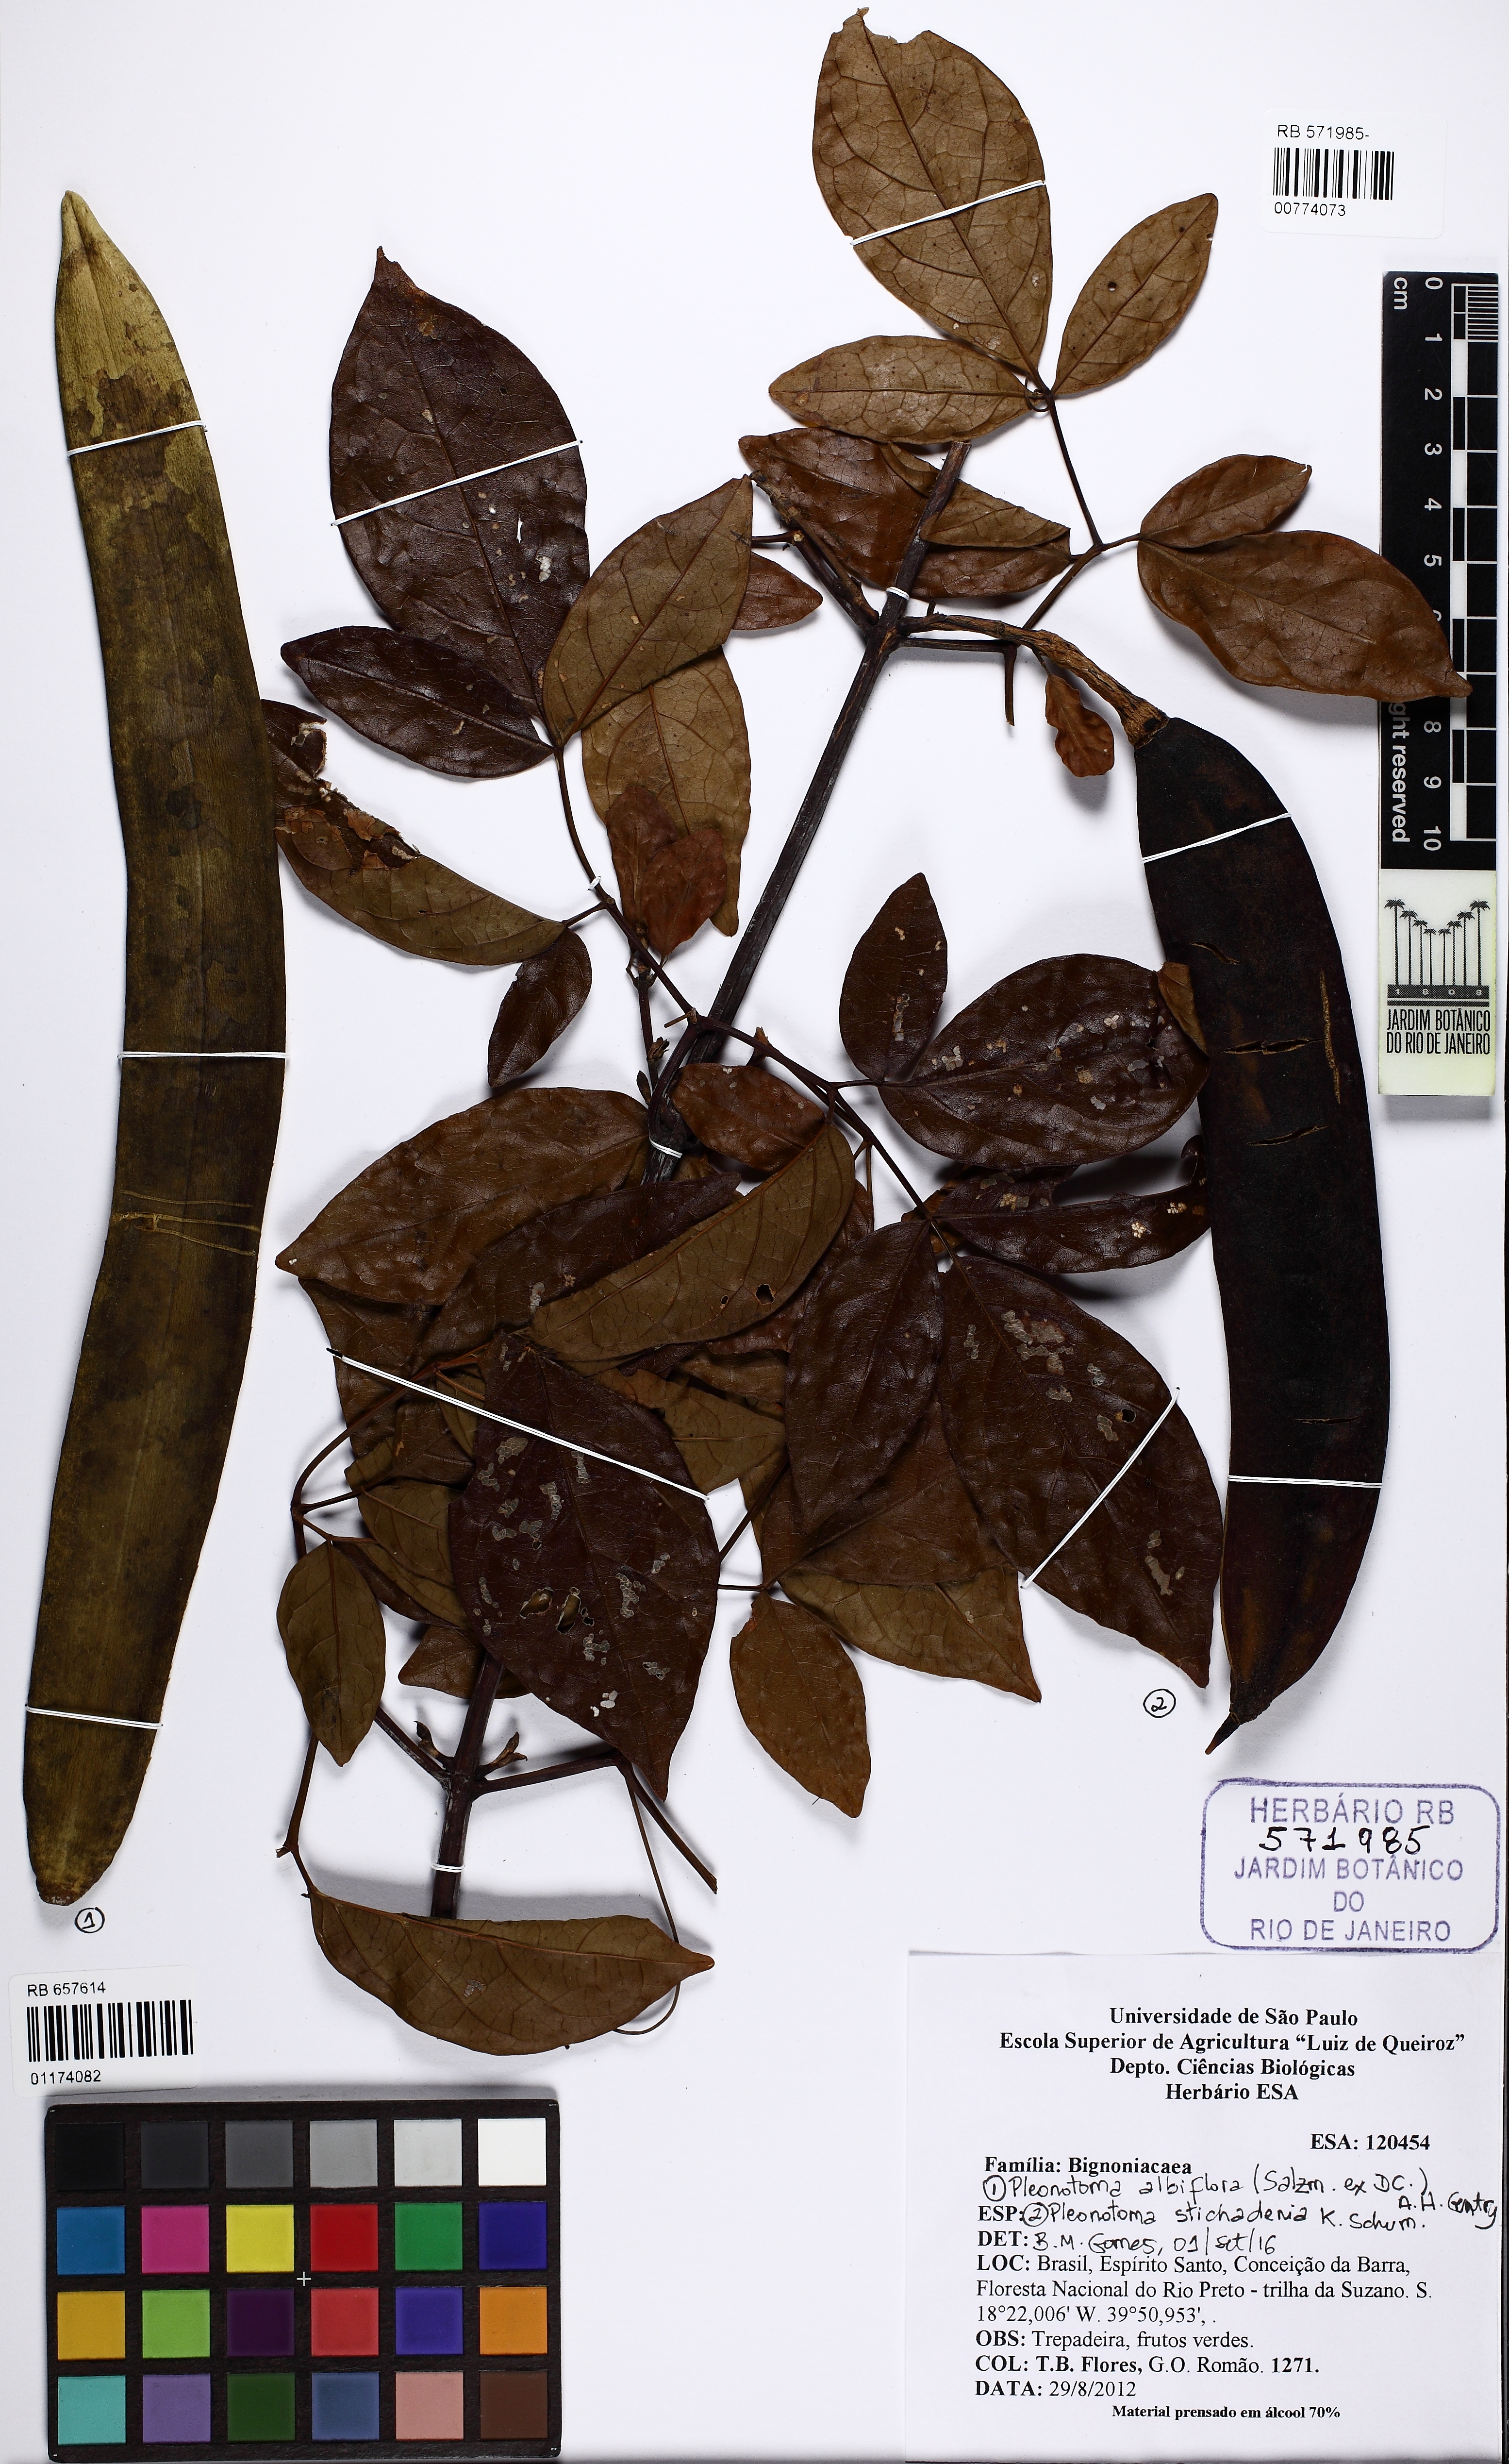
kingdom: Plantae
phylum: Tracheophyta
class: Magnoliopsida
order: Lamiales
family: Bignoniaceae
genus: Adenocalymma
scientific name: Adenocalymma albiflorum
